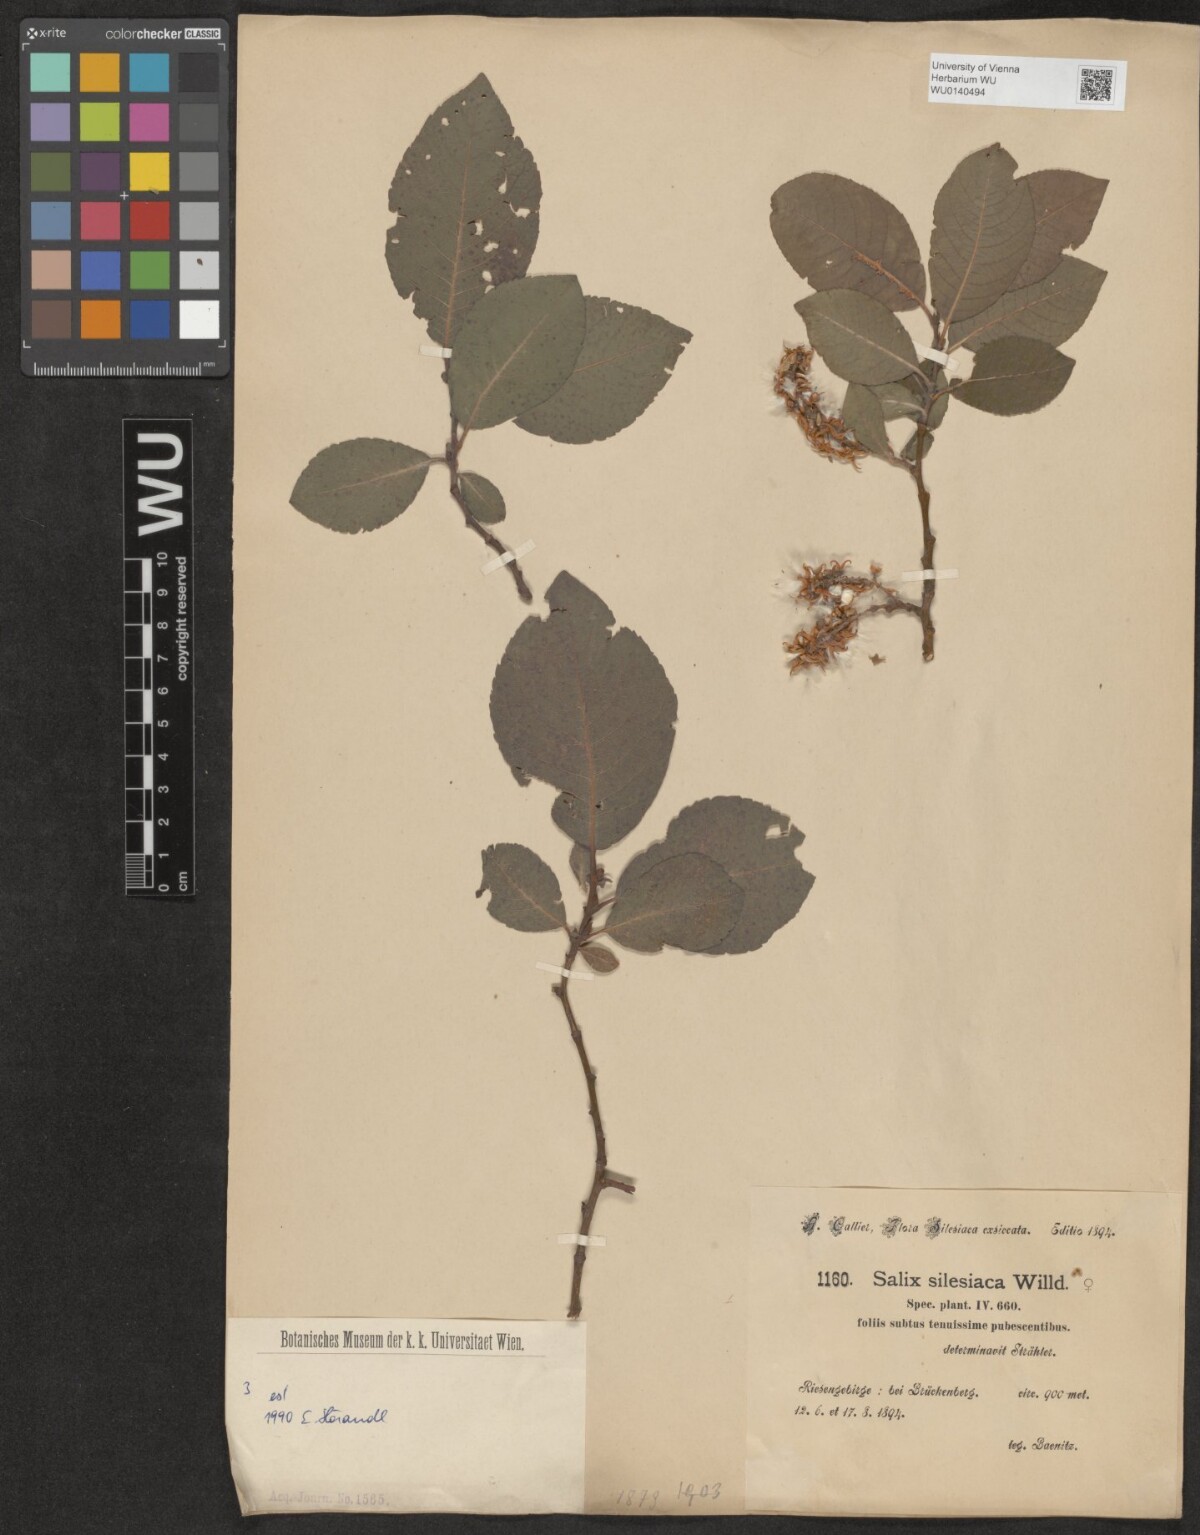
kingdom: Plantae
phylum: Tracheophyta
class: Magnoliopsida
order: Malpighiales
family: Salicaceae
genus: Salix
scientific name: Salix silesiaca
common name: Silesian willow
